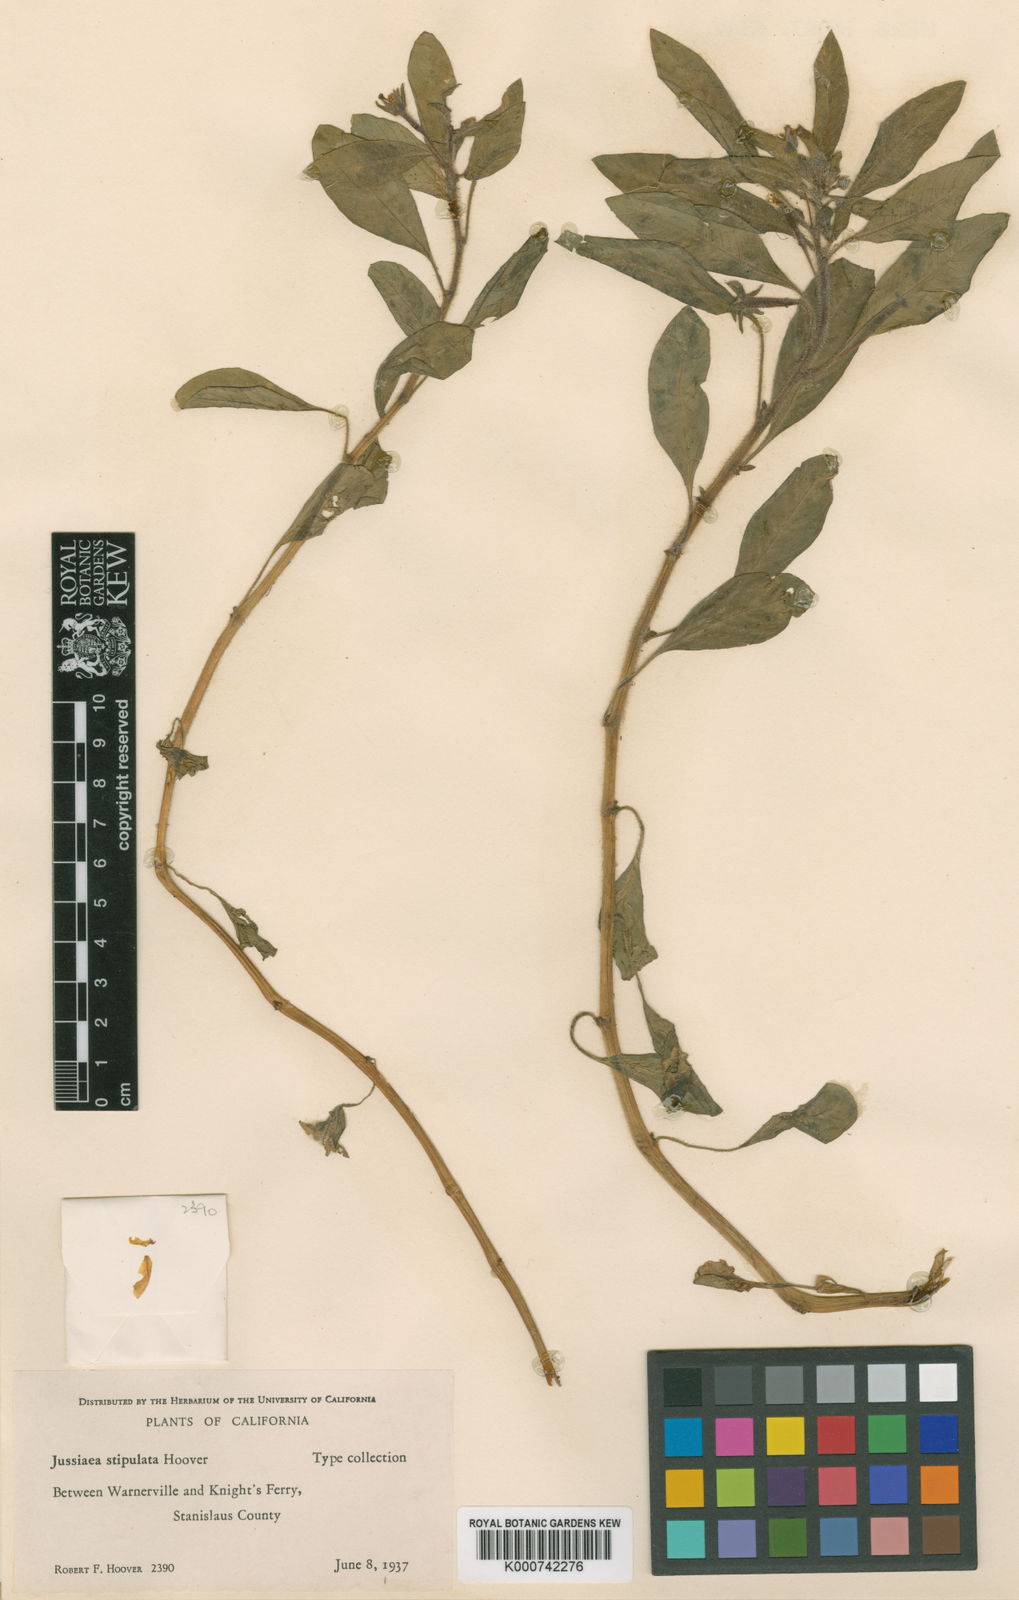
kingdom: Plantae
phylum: Tracheophyta
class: Magnoliopsida
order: Myrtales
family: Onagraceae
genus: Ludwigia
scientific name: Ludwigia peploides
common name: Floating primrose-willow
